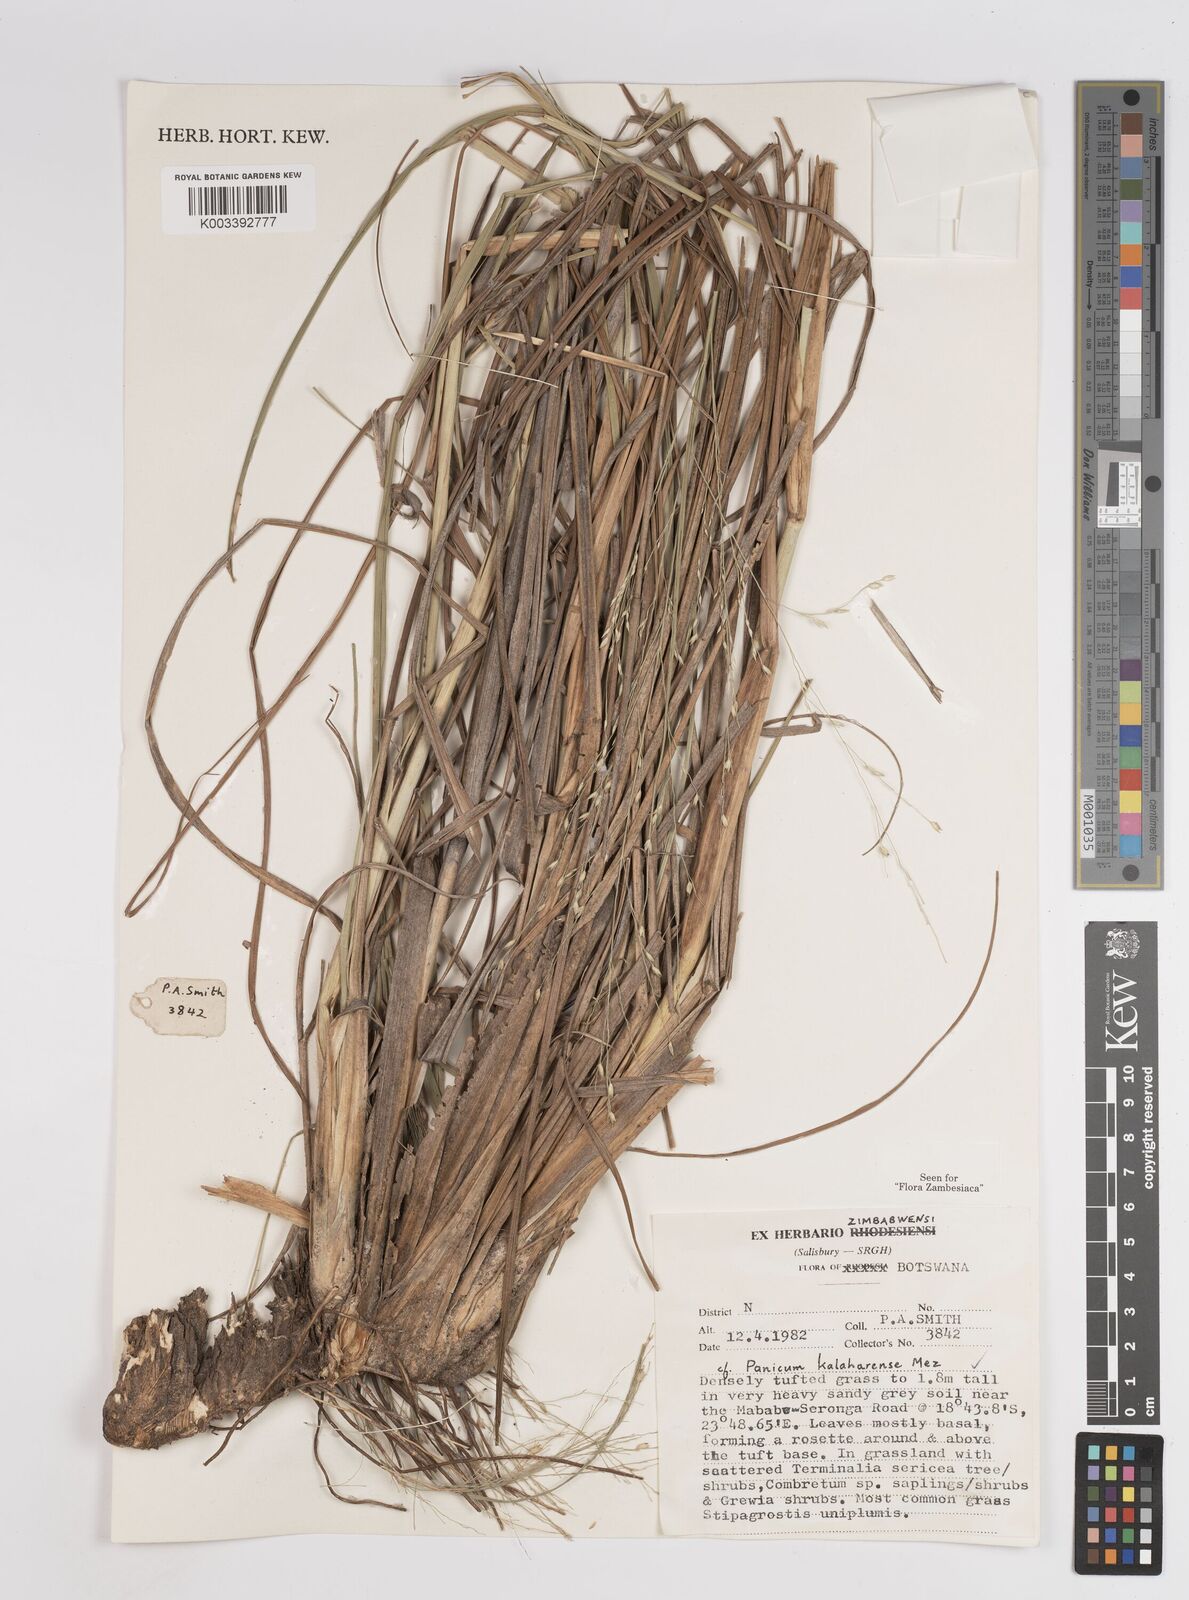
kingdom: Plantae
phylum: Tracheophyta
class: Liliopsida
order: Poales
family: Poaceae
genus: Panicum
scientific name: Panicum kalaharense
